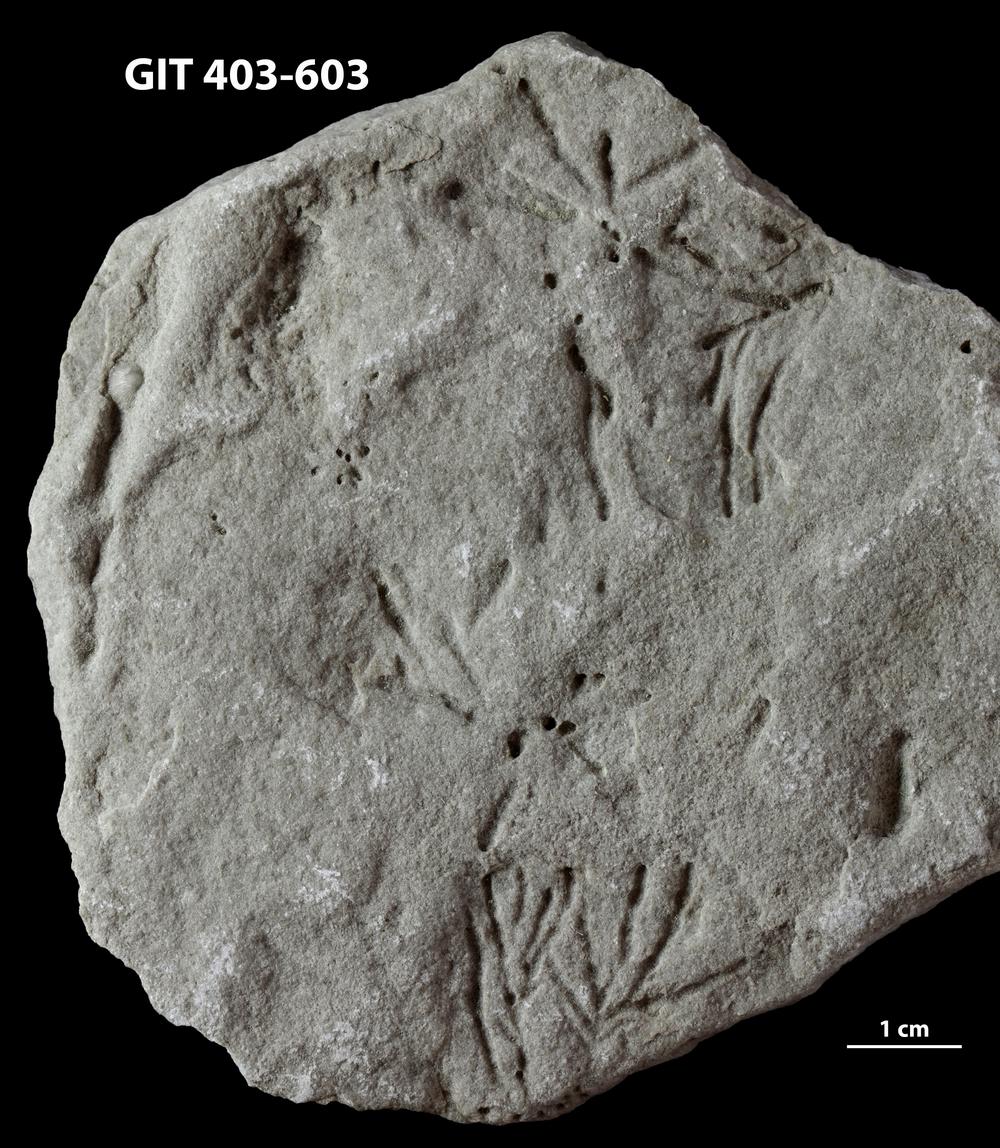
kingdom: Animalia
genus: Chondrites
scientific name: Chondrites
